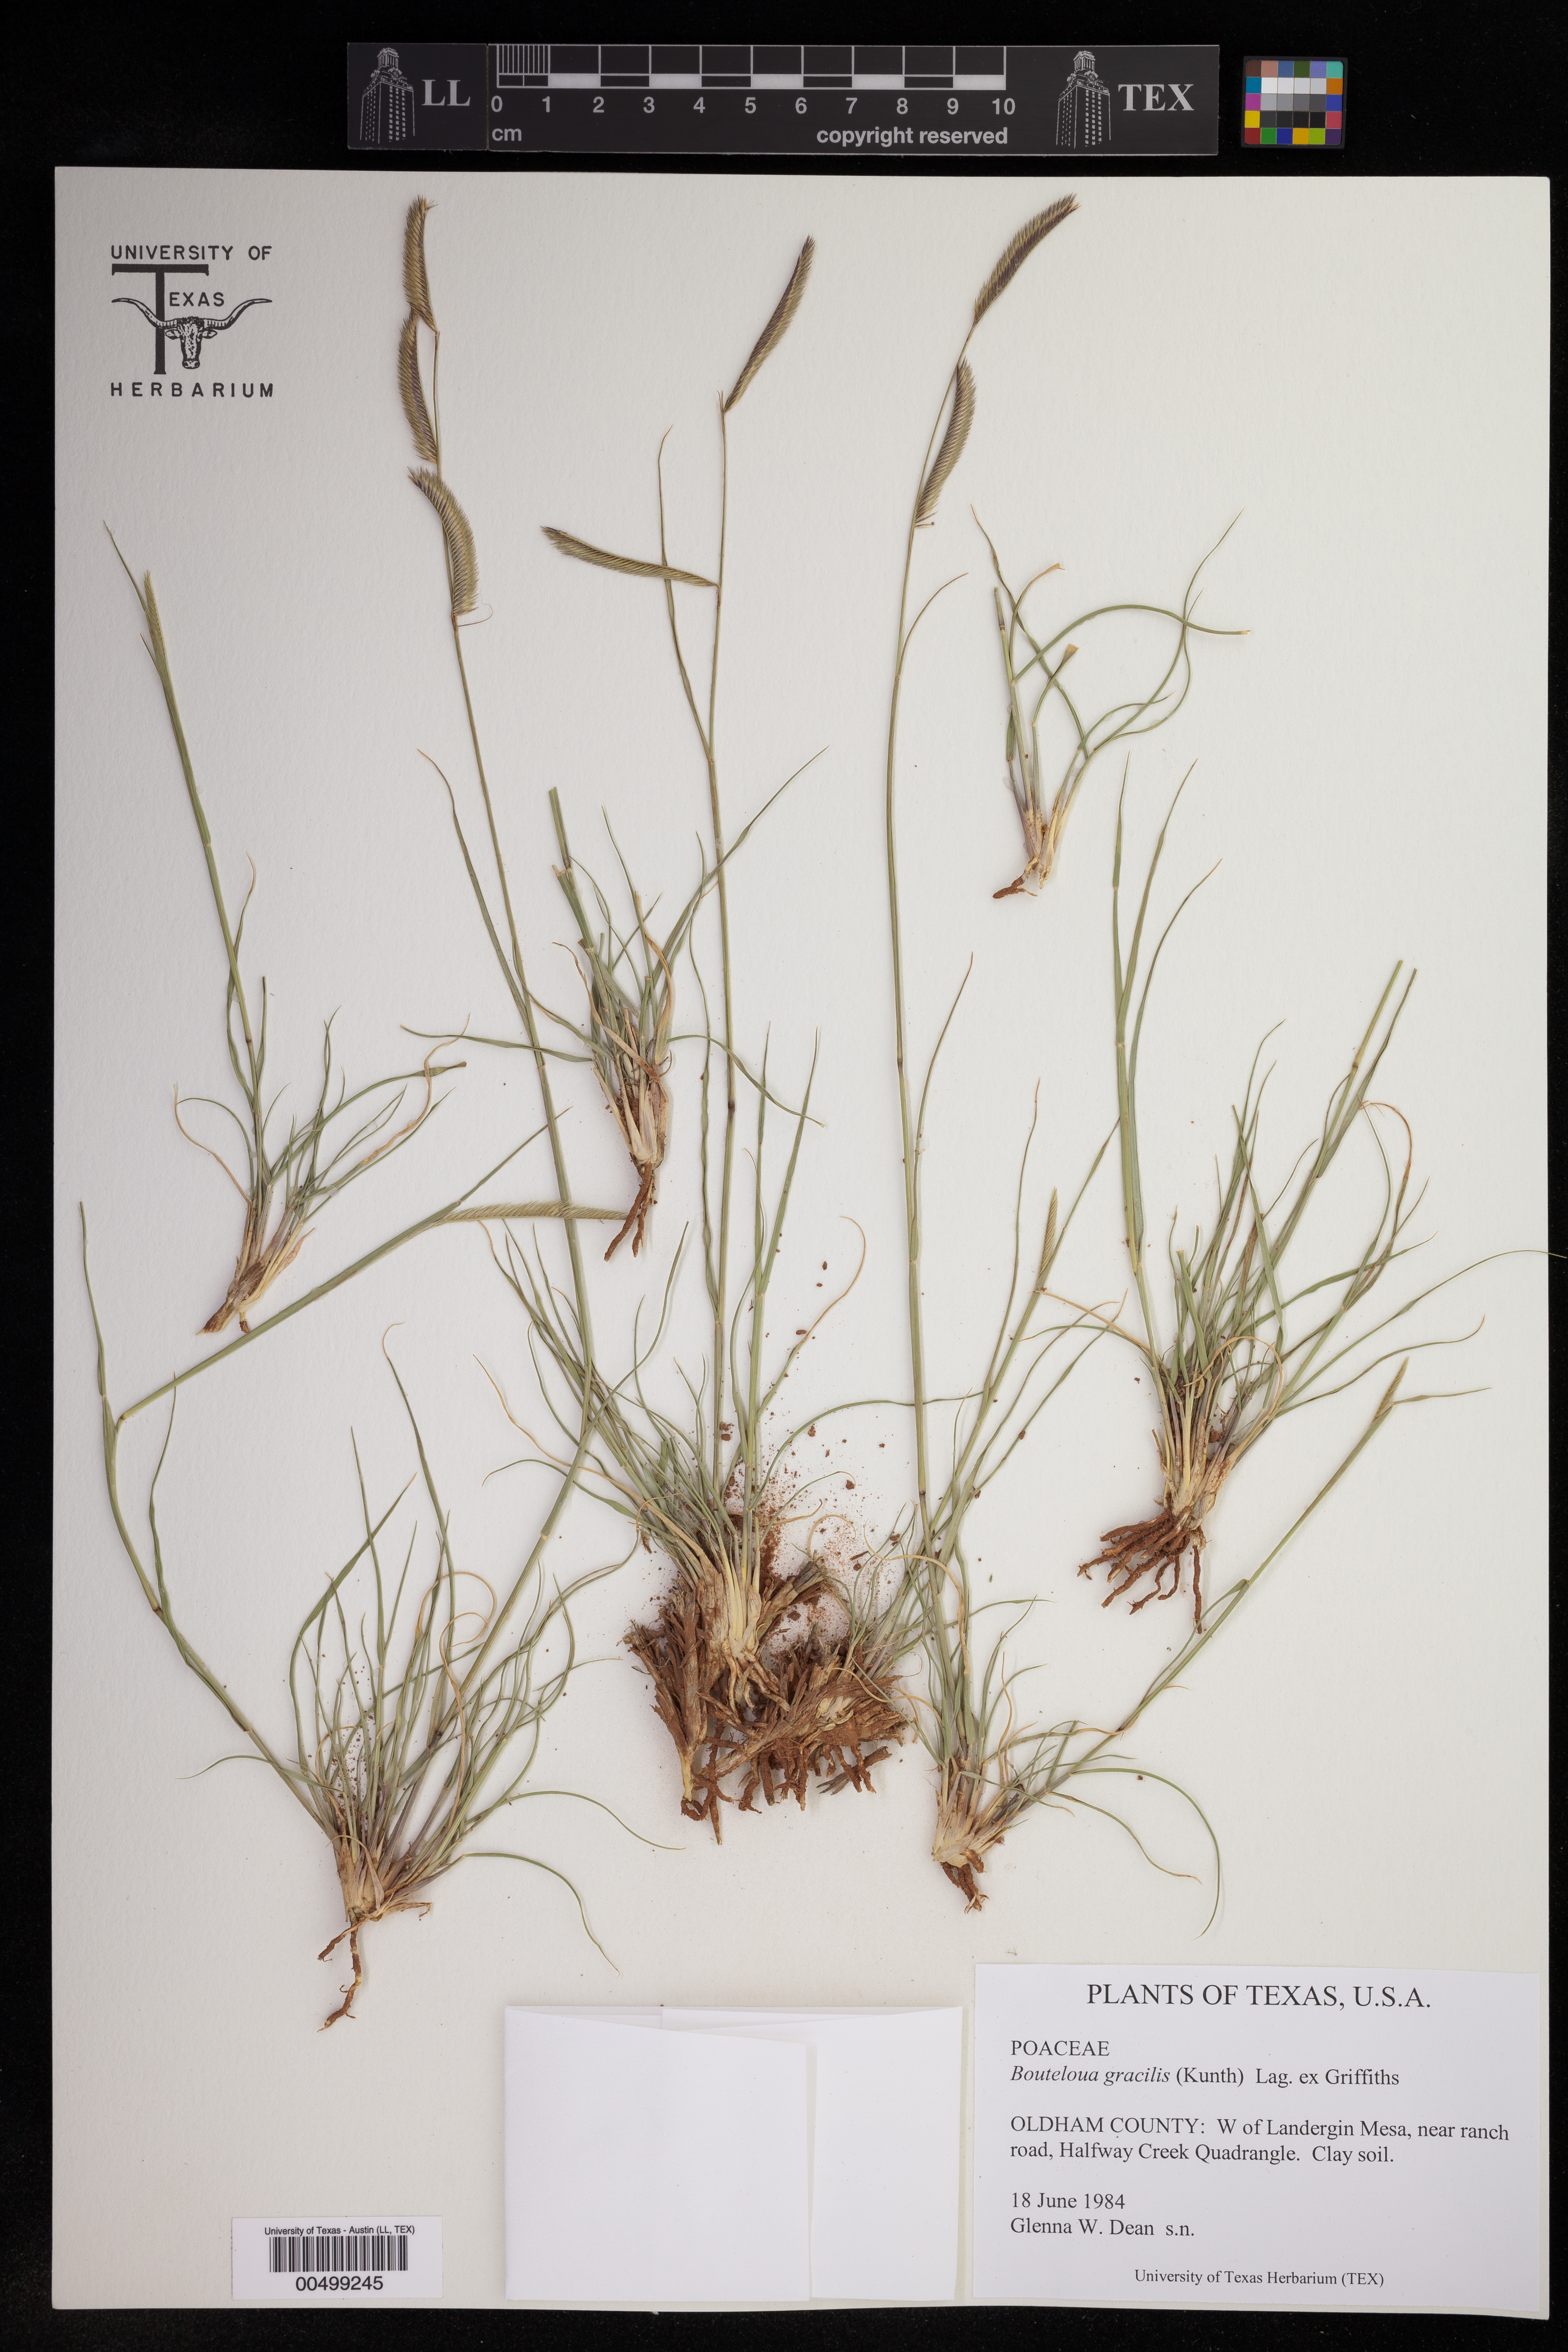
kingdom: Plantae
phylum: Tracheophyta
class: Liliopsida
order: Poales
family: Poaceae
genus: Bouteloua
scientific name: Bouteloua gracilis
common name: Blue grama
